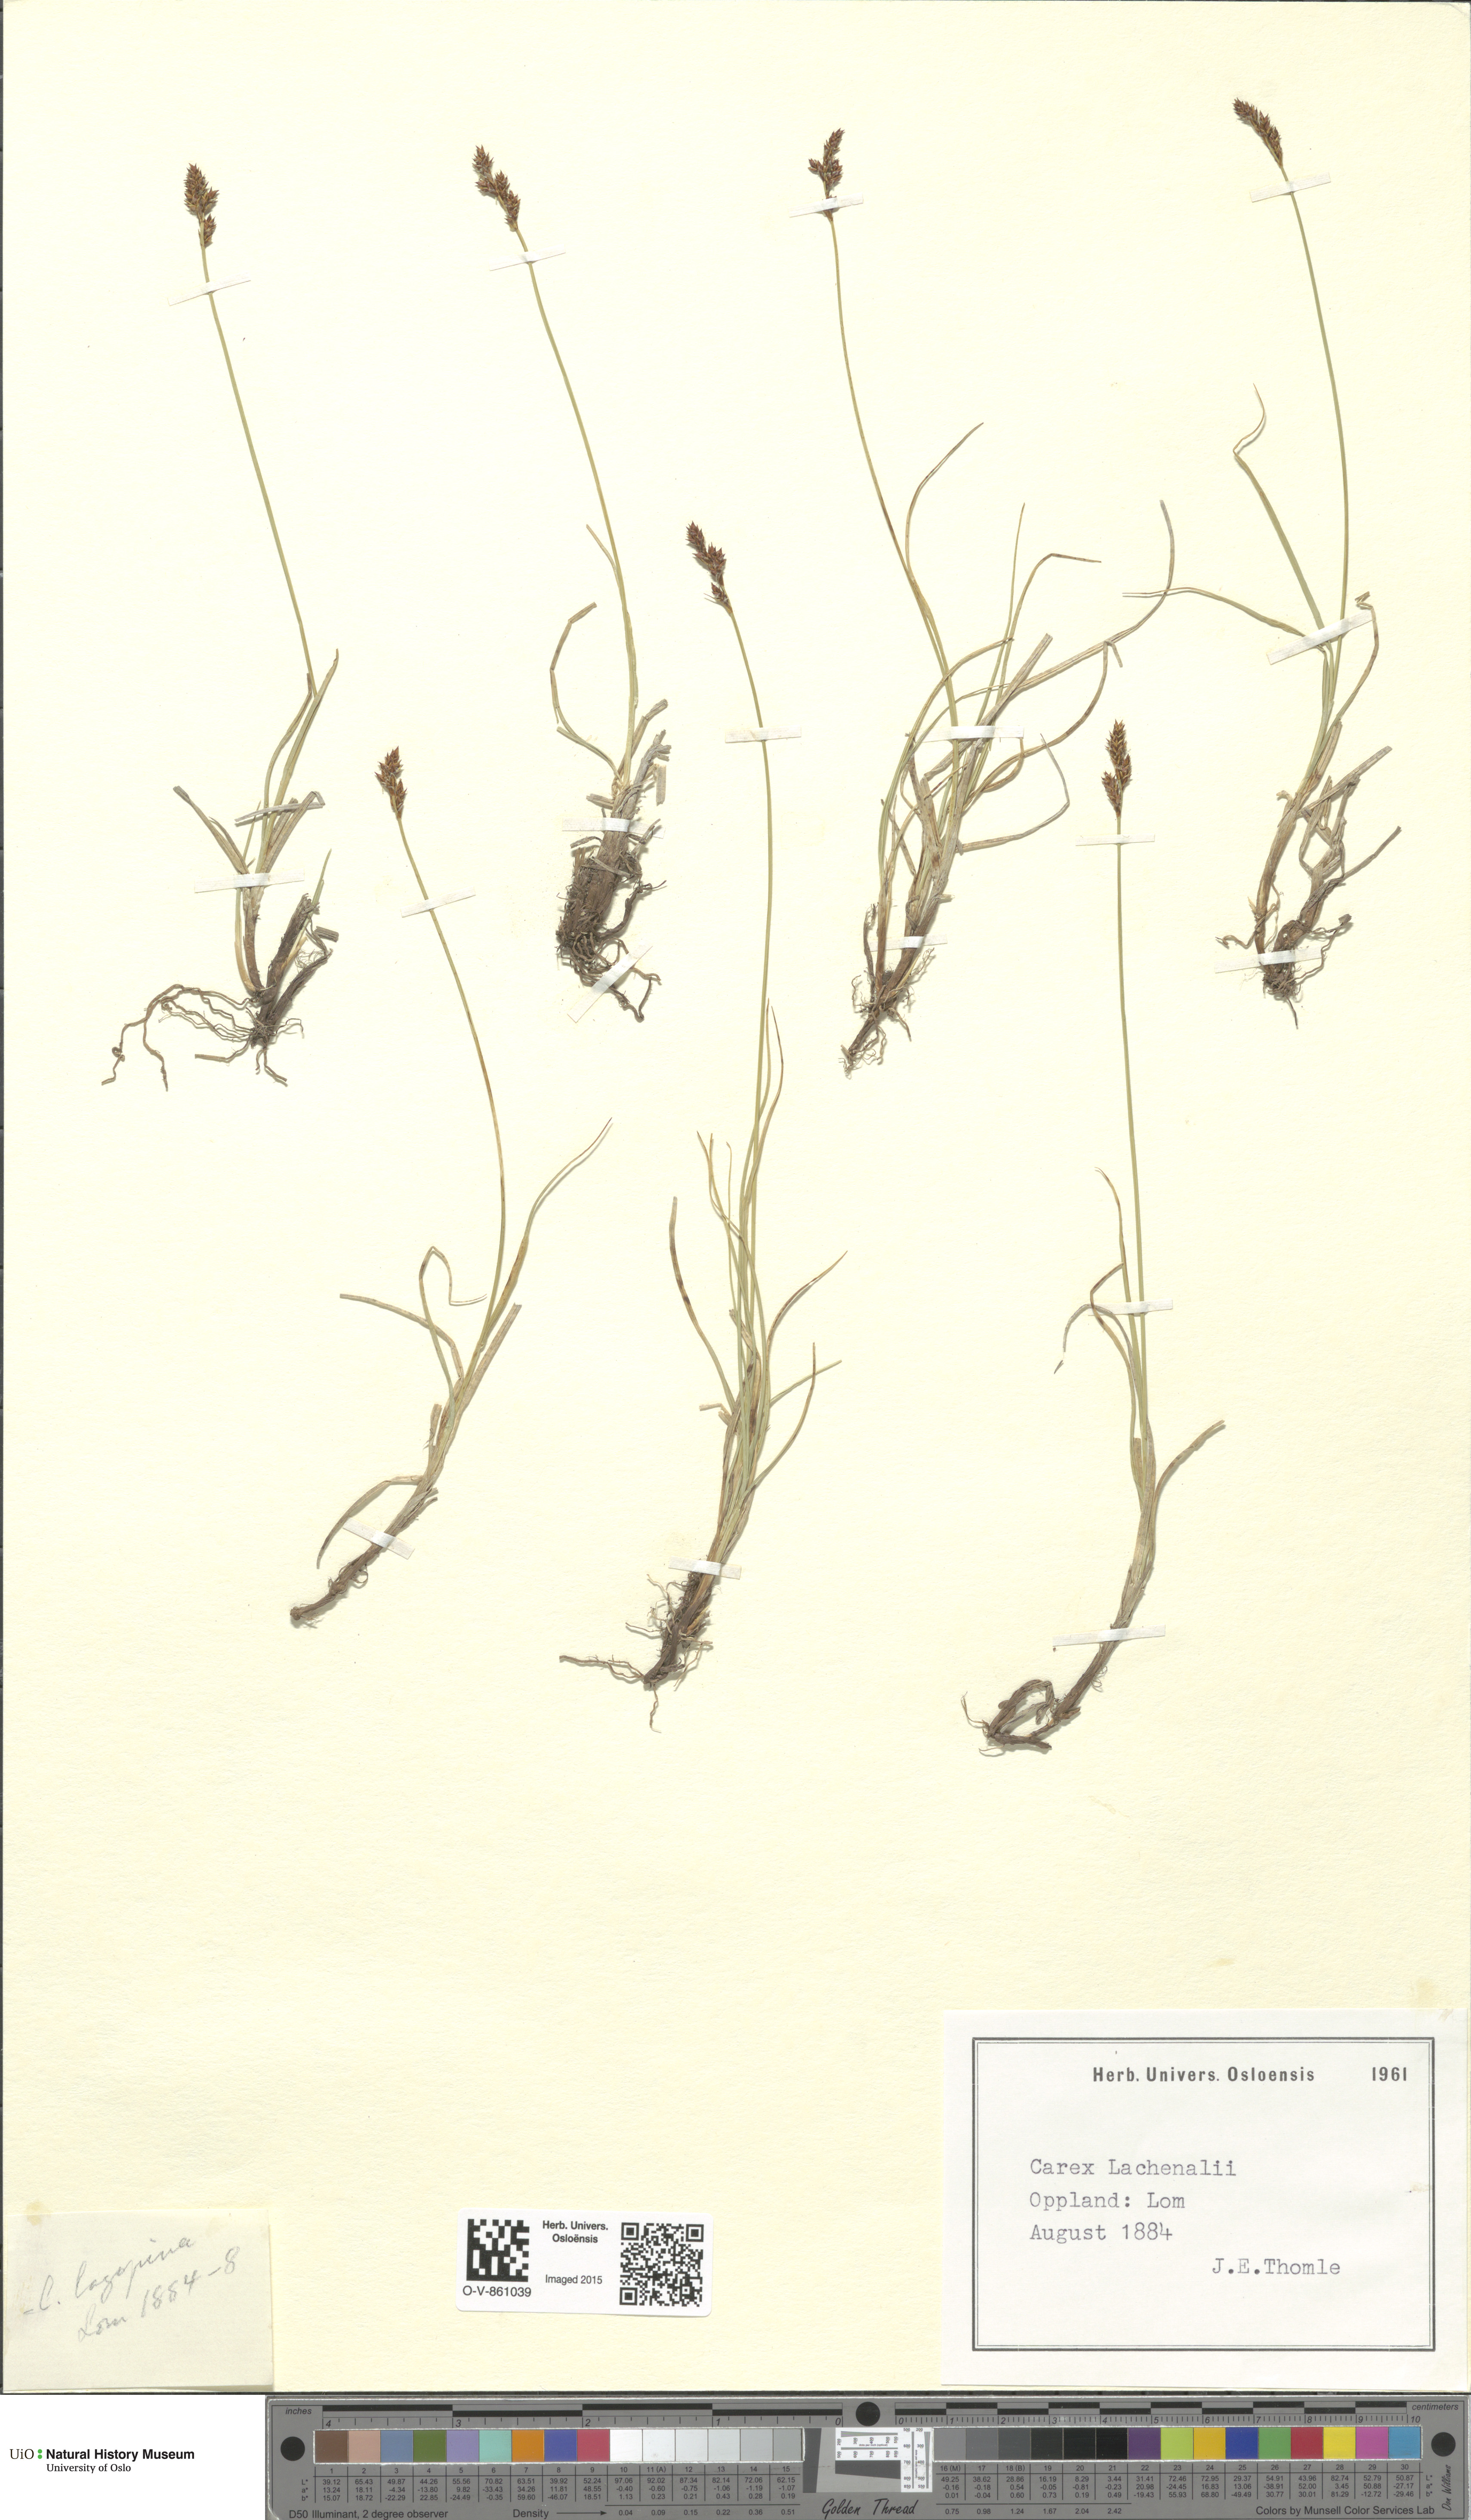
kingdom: Plantae
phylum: Tracheophyta
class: Liliopsida
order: Poales
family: Cyperaceae
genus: Carex
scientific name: Carex lachenalii
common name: Hare's-foot sedge
